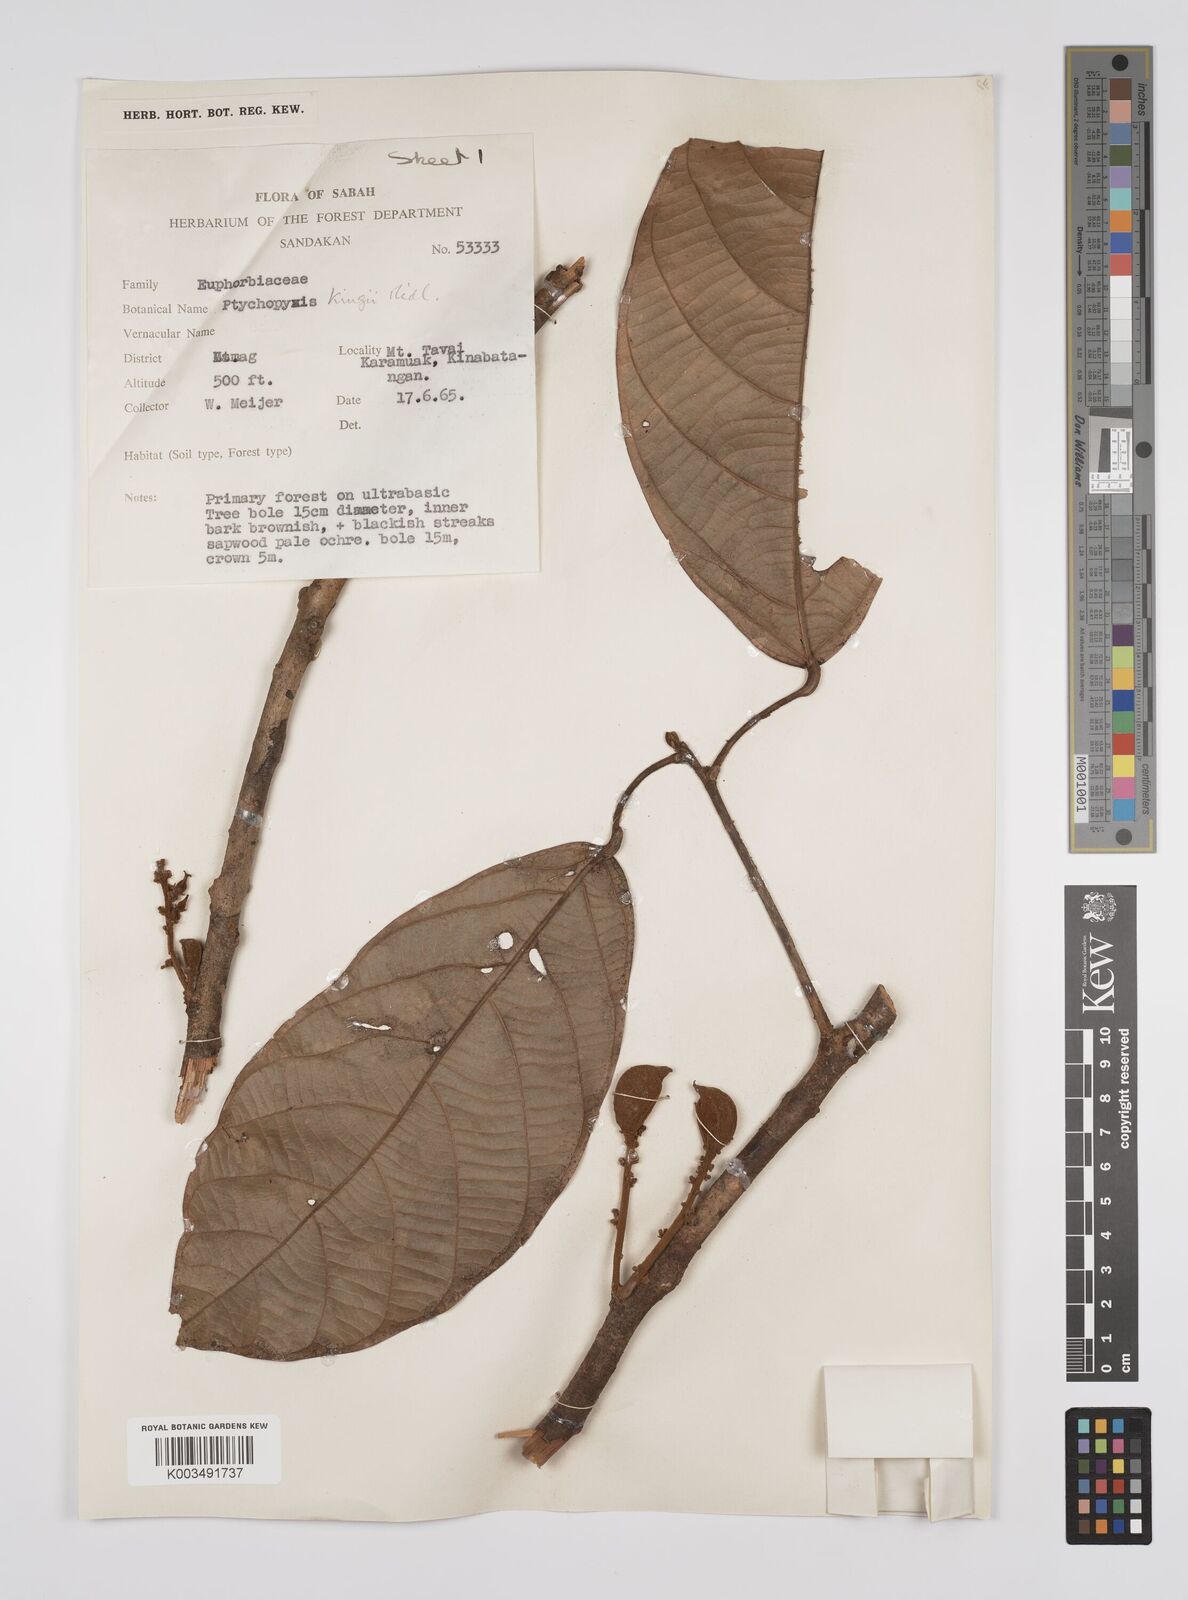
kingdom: Plantae
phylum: Tracheophyta
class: Magnoliopsida
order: Malpighiales
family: Euphorbiaceae
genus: Ptychopyxis
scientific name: Ptychopyxis kingii
